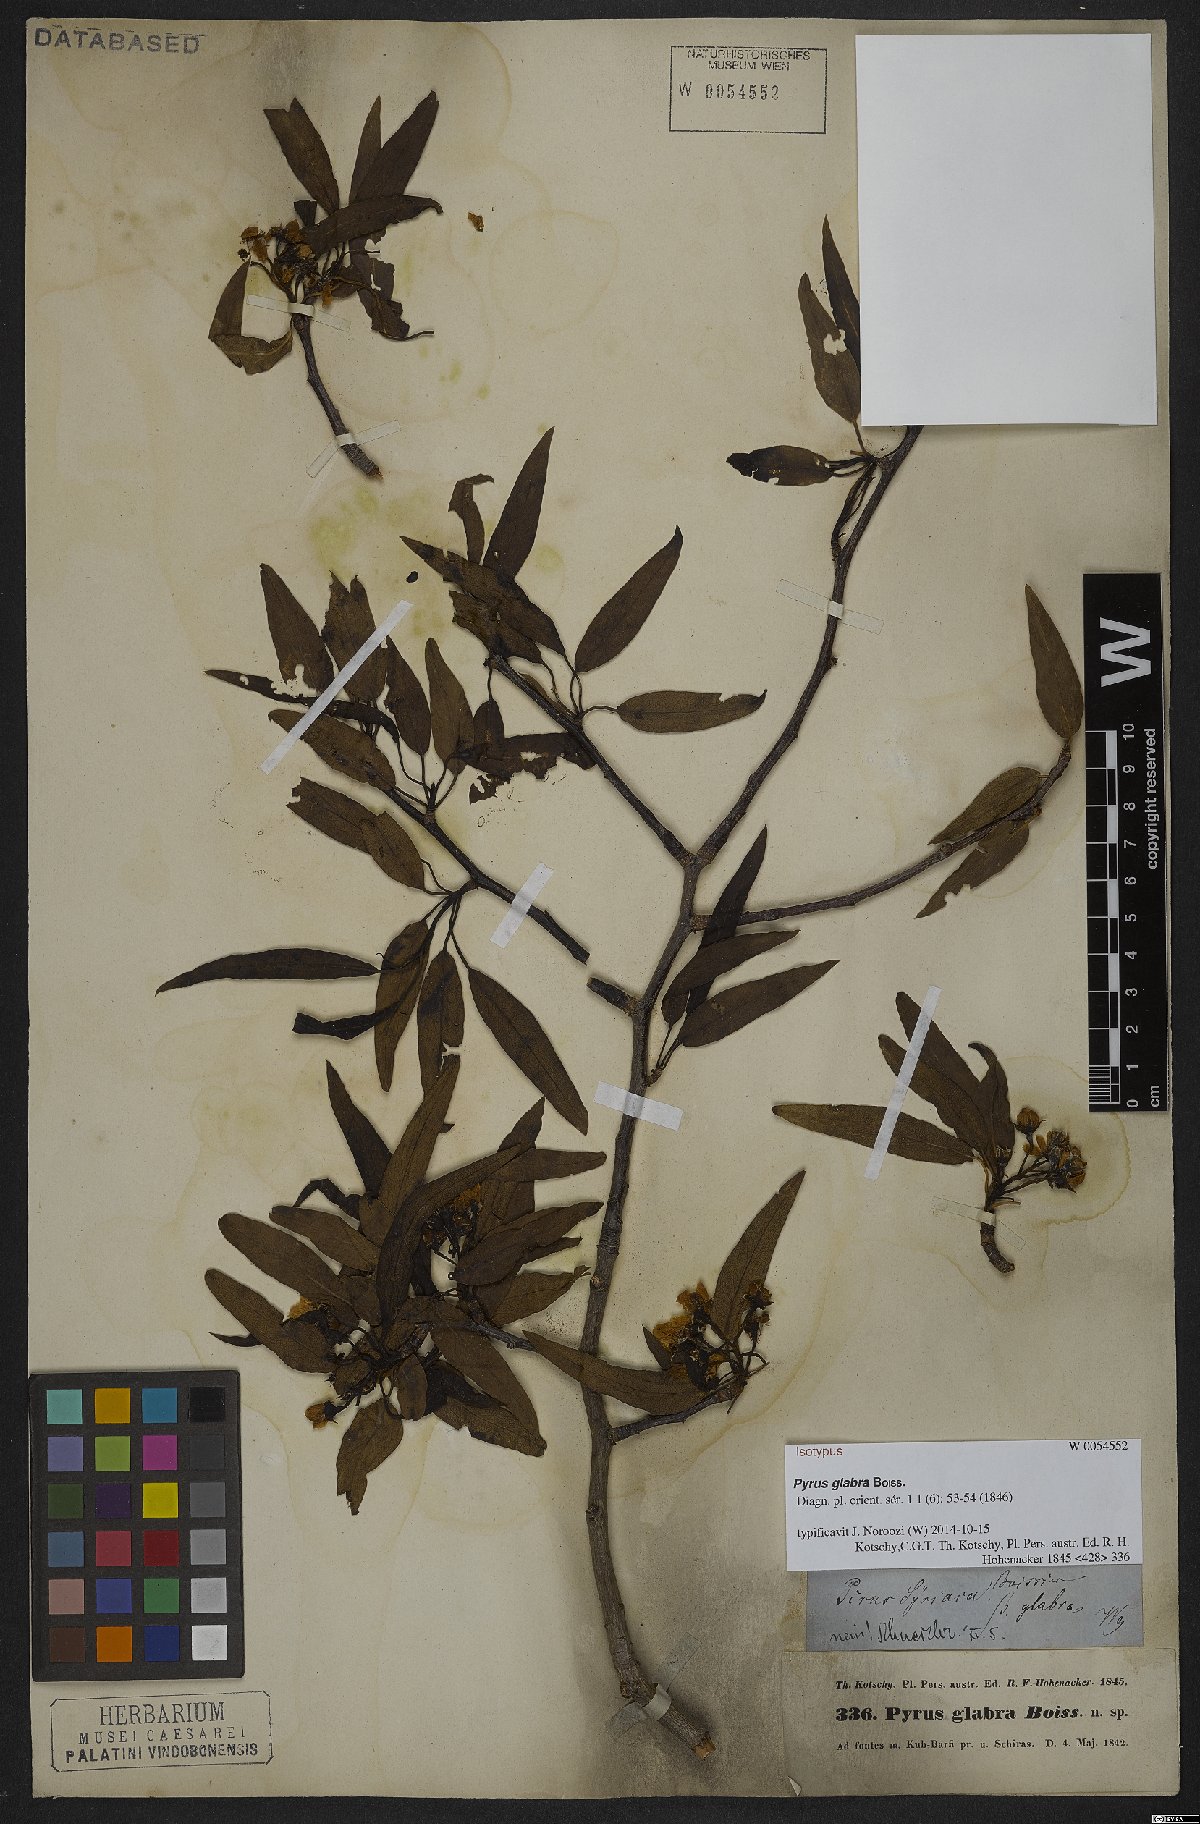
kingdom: Plantae
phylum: Tracheophyta
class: Magnoliopsida
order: Rosales
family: Rosaceae
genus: Pyrus
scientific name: Pyrus glabra
